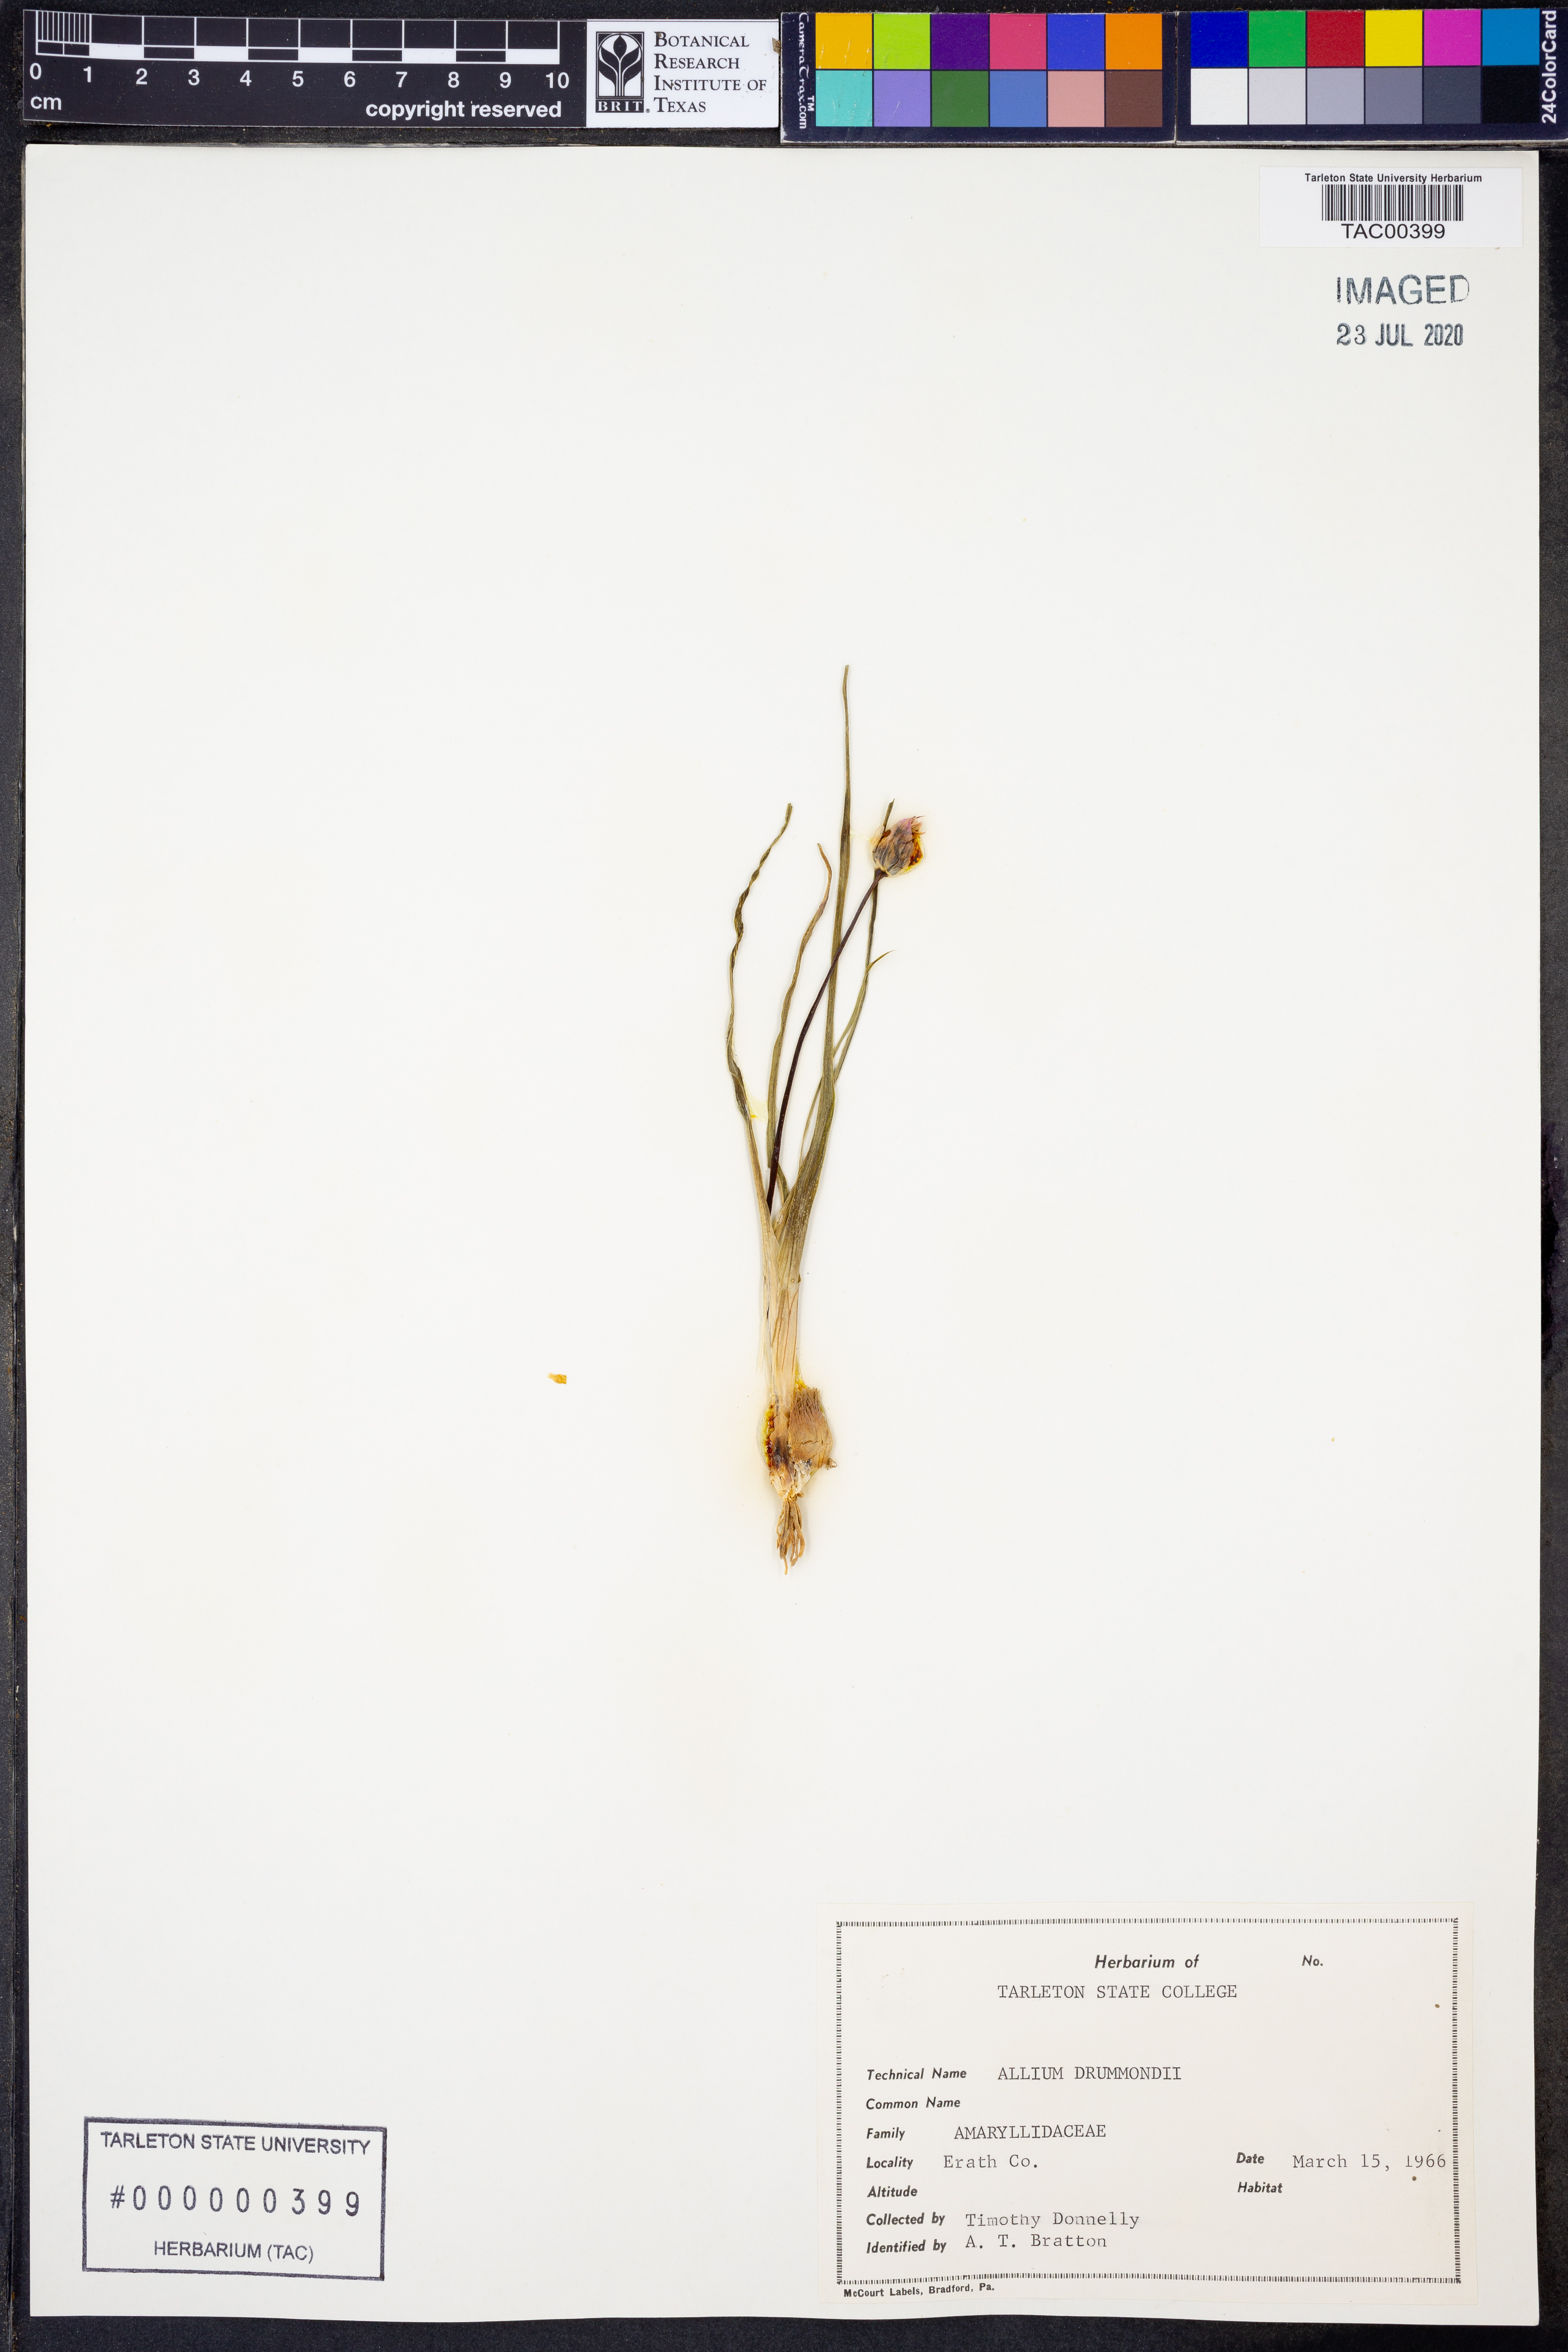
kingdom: Plantae
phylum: Tracheophyta
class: Liliopsida
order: Asparagales
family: Amaryllidaceae
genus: Allium
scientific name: Allium drummondii
